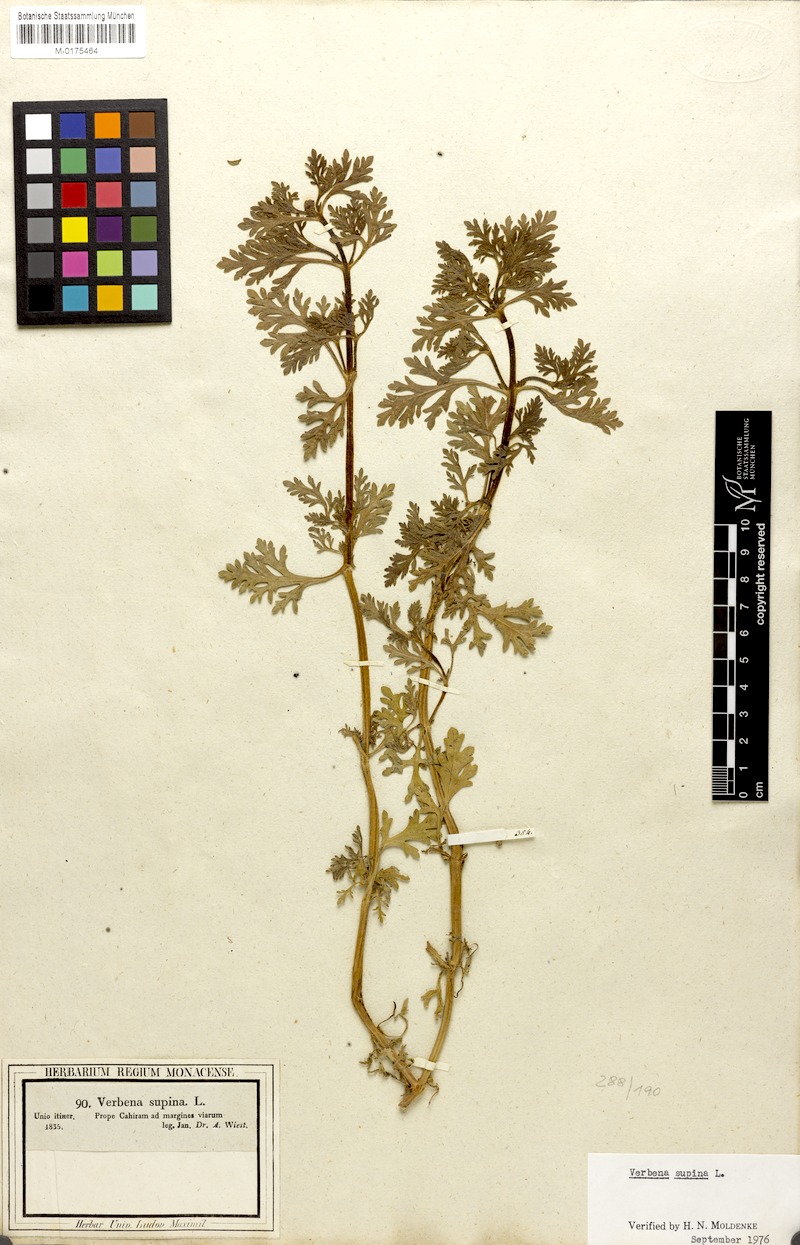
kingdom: Plantae
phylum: Tracheophyta
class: Magnoliopsida
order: Lamiales
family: Verbenaceae
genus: Verbena
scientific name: Verbena supina
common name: Trailing vervain
